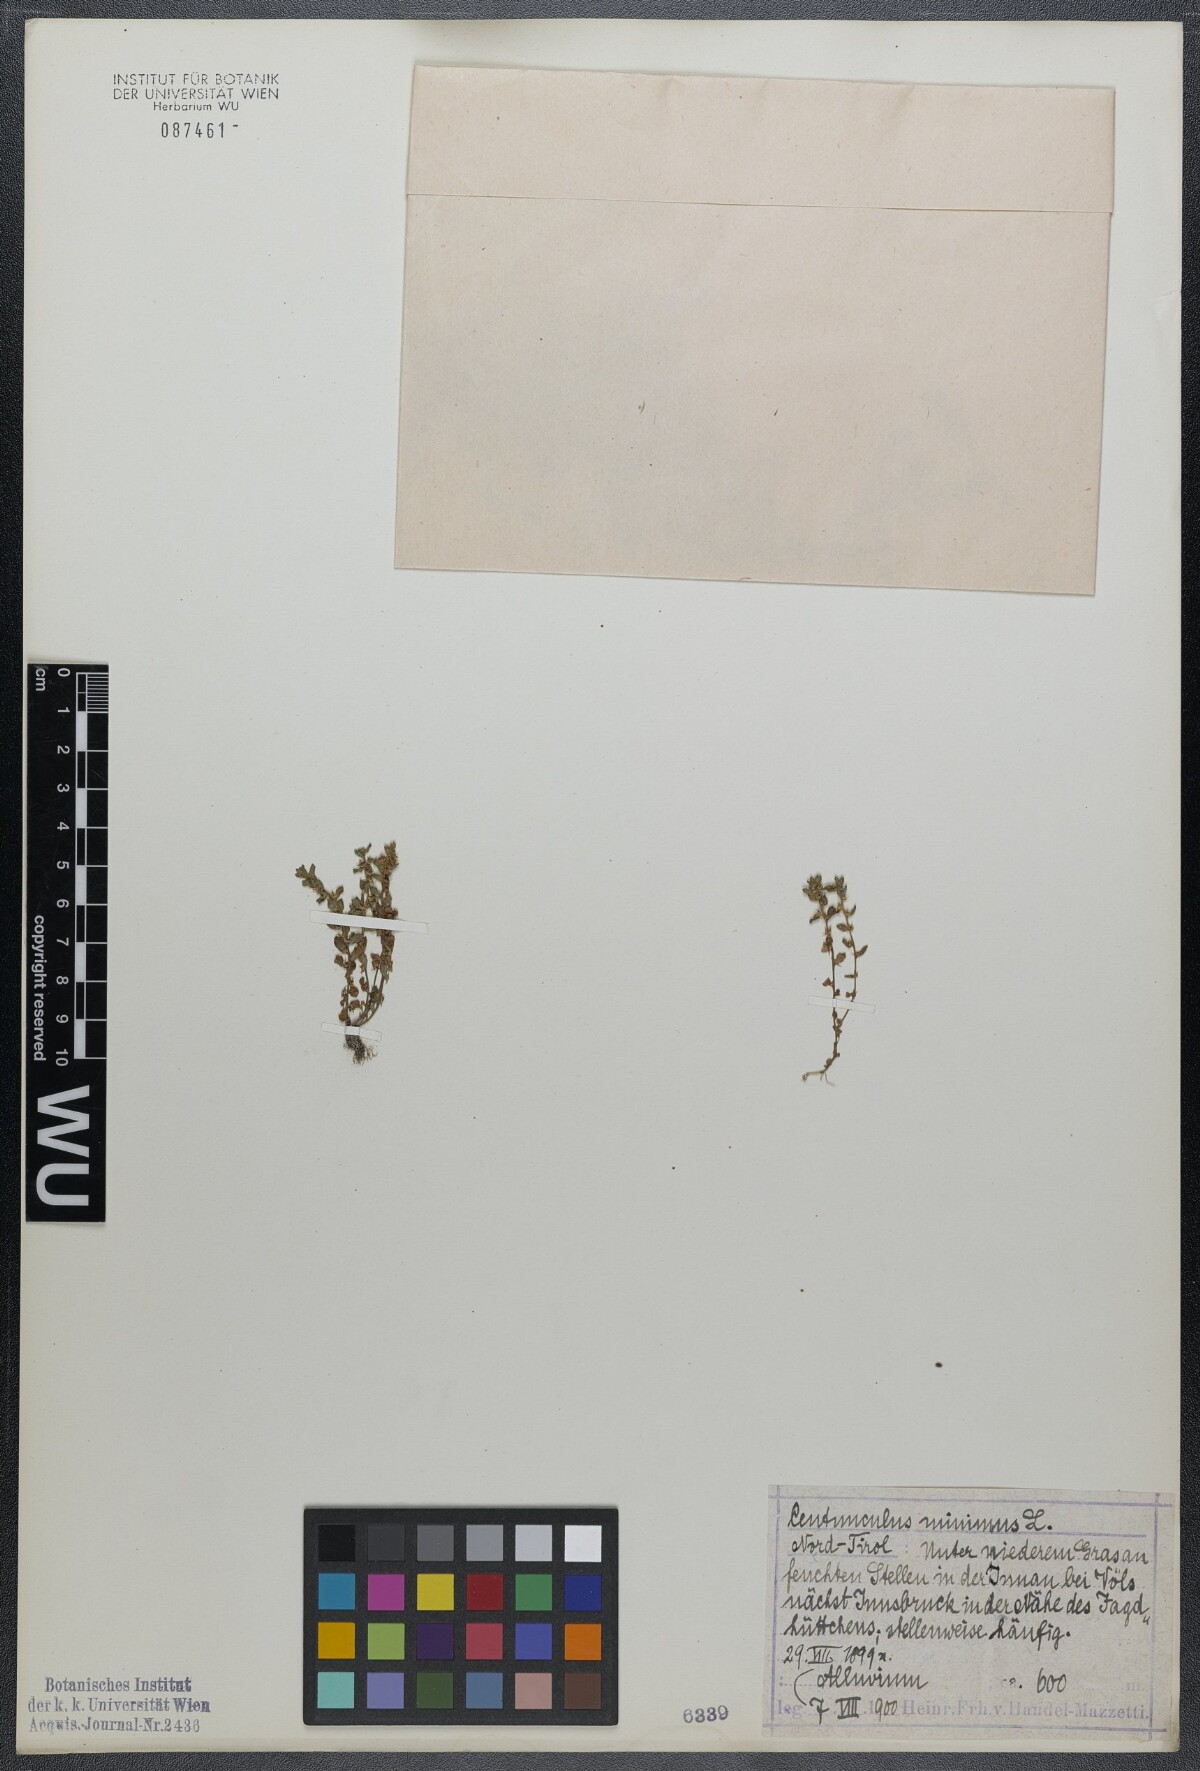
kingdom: Plantae
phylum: Tracheophyta
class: Magnoliopsida
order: Ericales
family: Primulaceae
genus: Lysimachia
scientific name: Lysimachia minima
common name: Chaffweed
